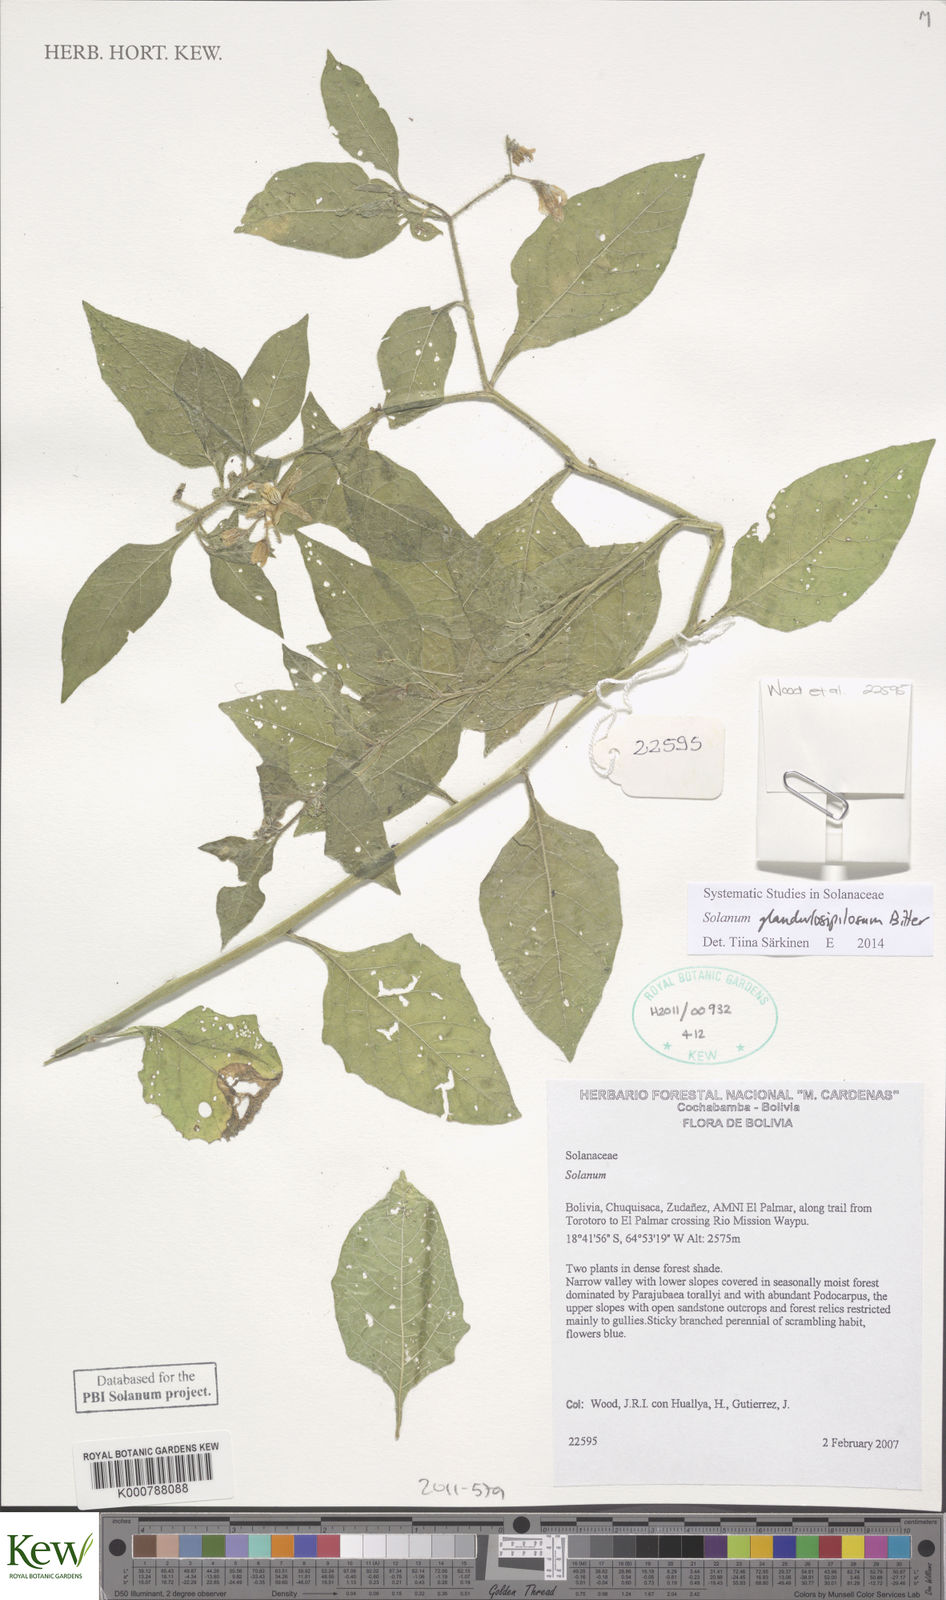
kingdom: Plantae
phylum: Tracheophyta
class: Magnoliopsida
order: Solanales
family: Solanaceae
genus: Solanum
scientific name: Solanum glandulosipilosum
